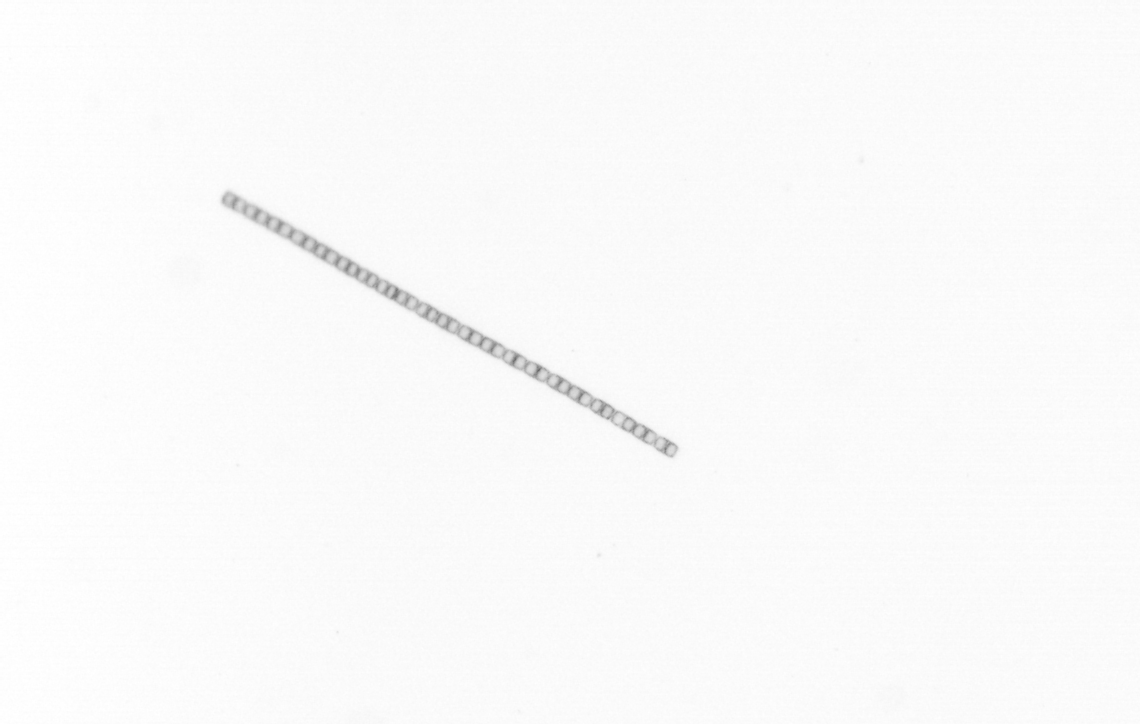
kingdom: Chromista
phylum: Ochrophyta
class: Bacillariophyceae
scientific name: Bacillariophyceae
